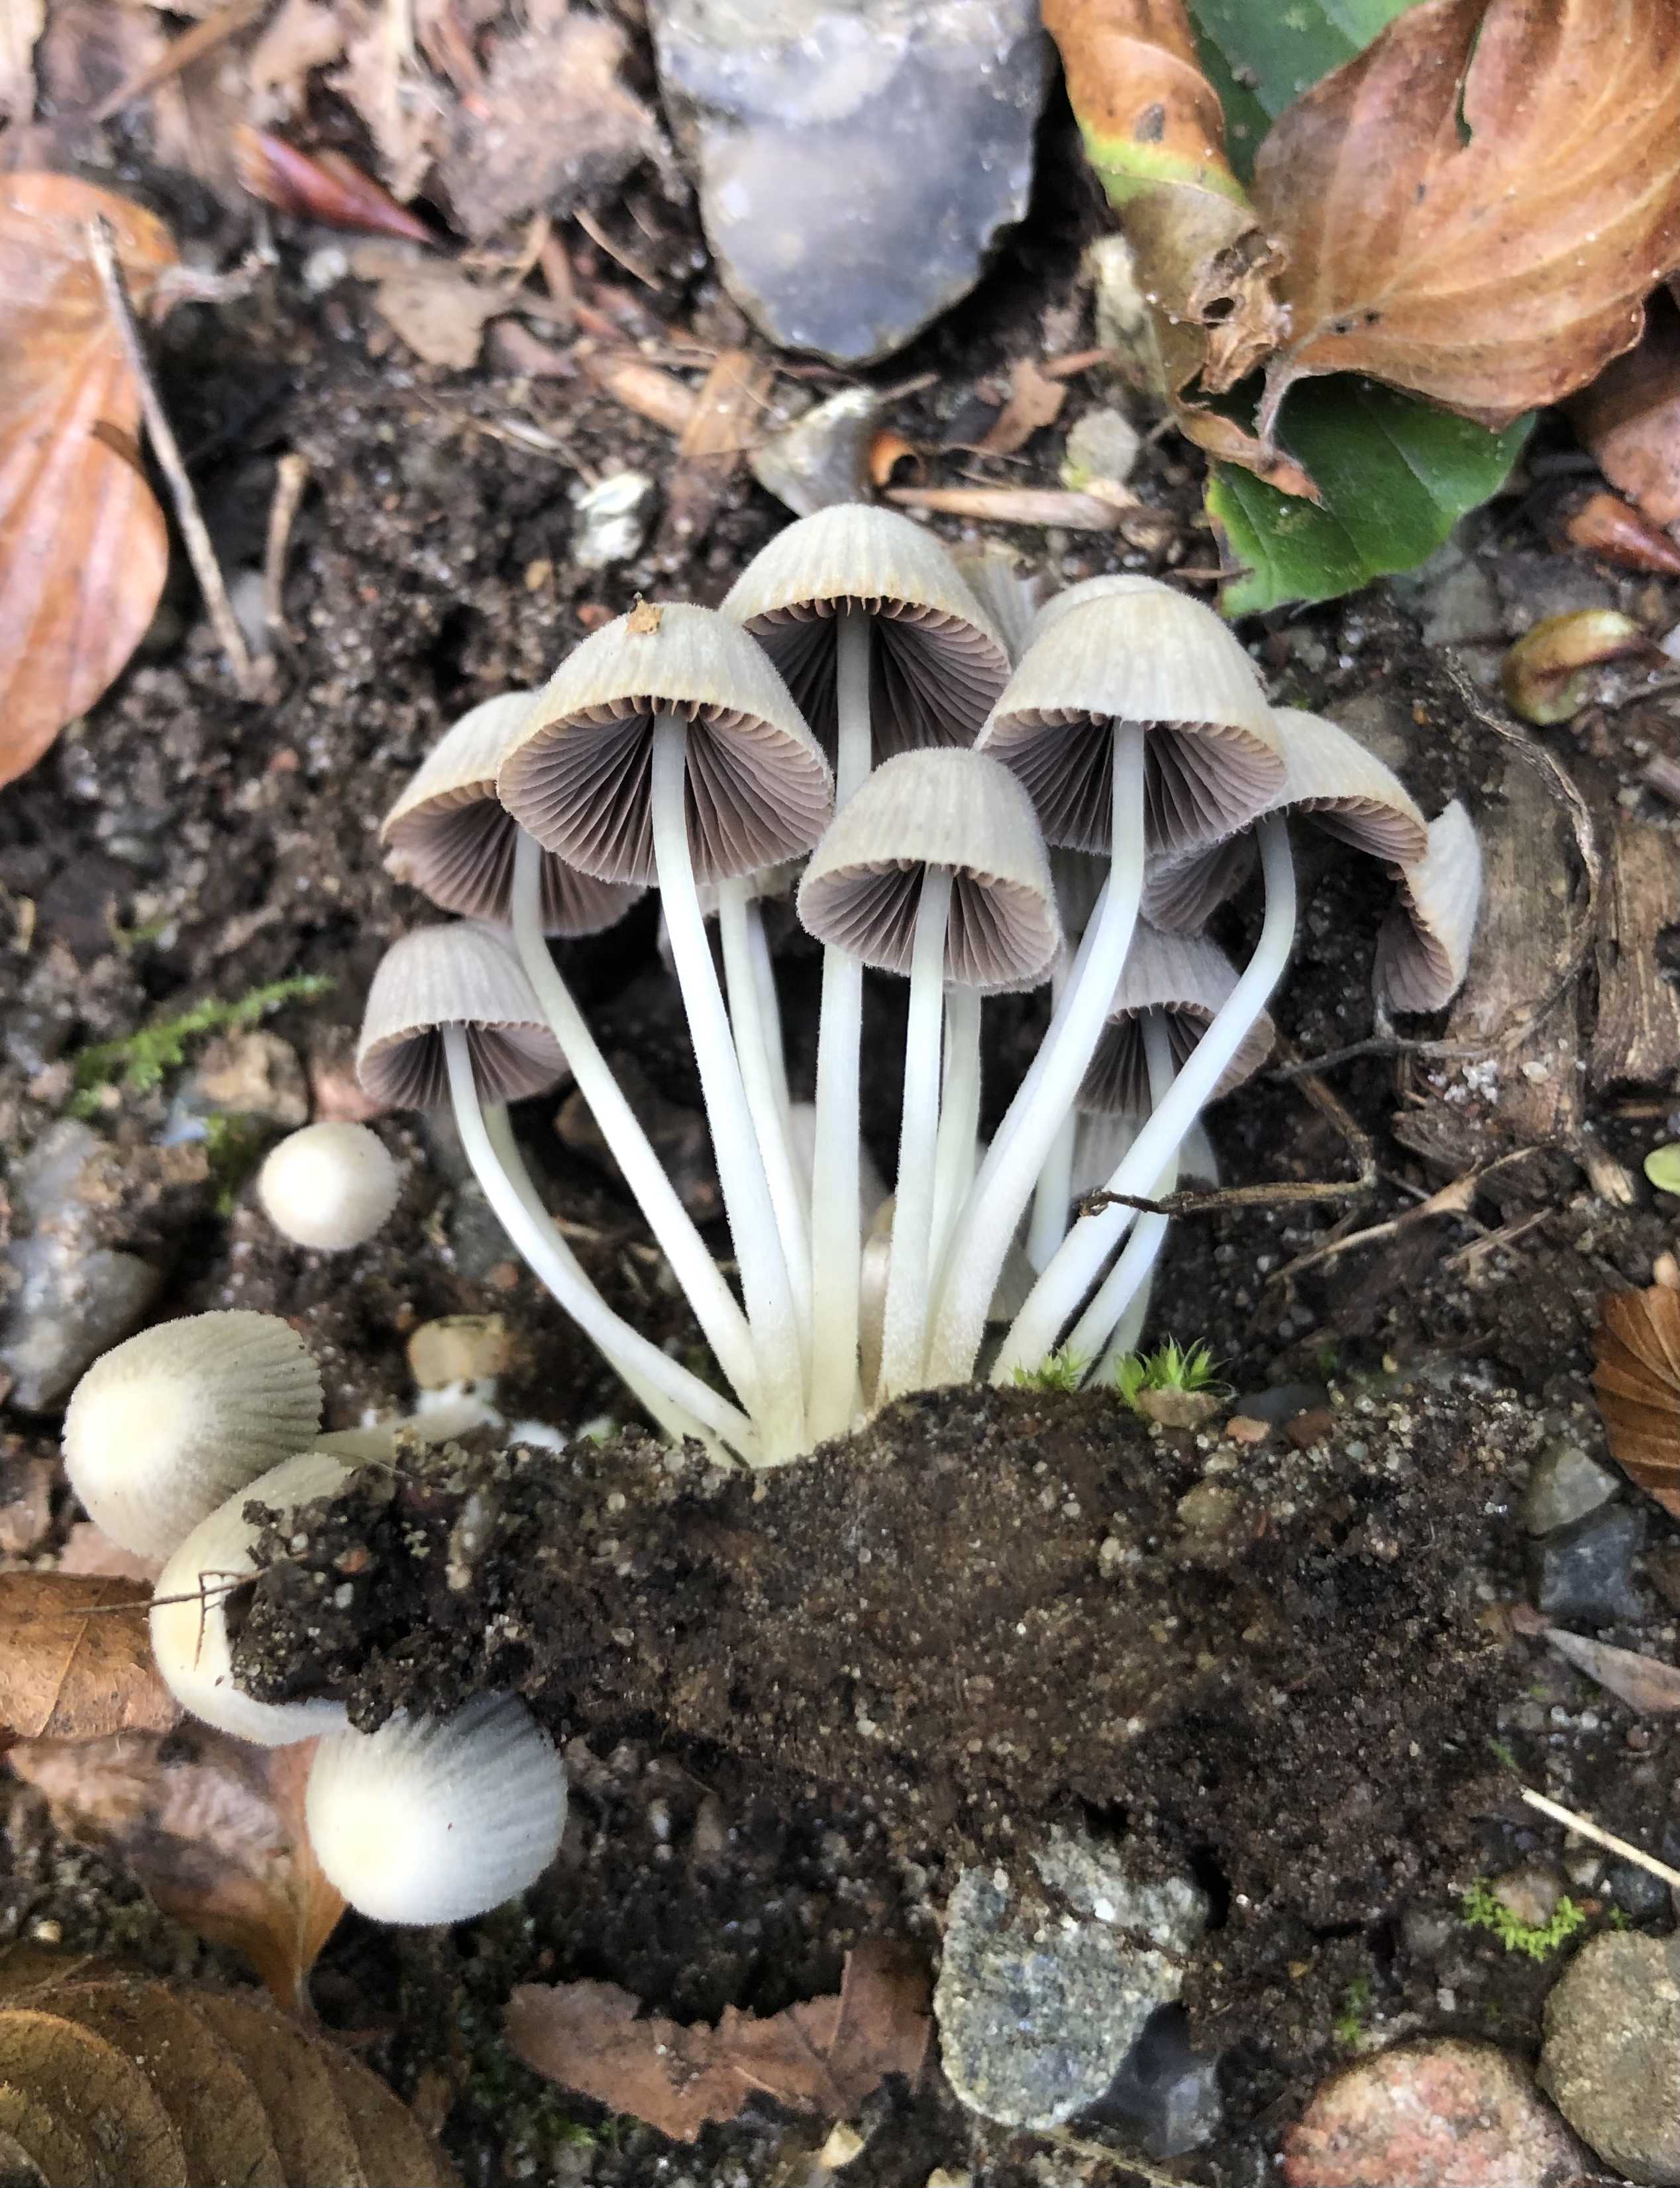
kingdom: Fungi
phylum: Basidiomycota
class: Agaricomycetes
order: Agaricales
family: Psathyrellaceae
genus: Coprinellus
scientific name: Coprinellus disseminatus
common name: bredsået blækhat
